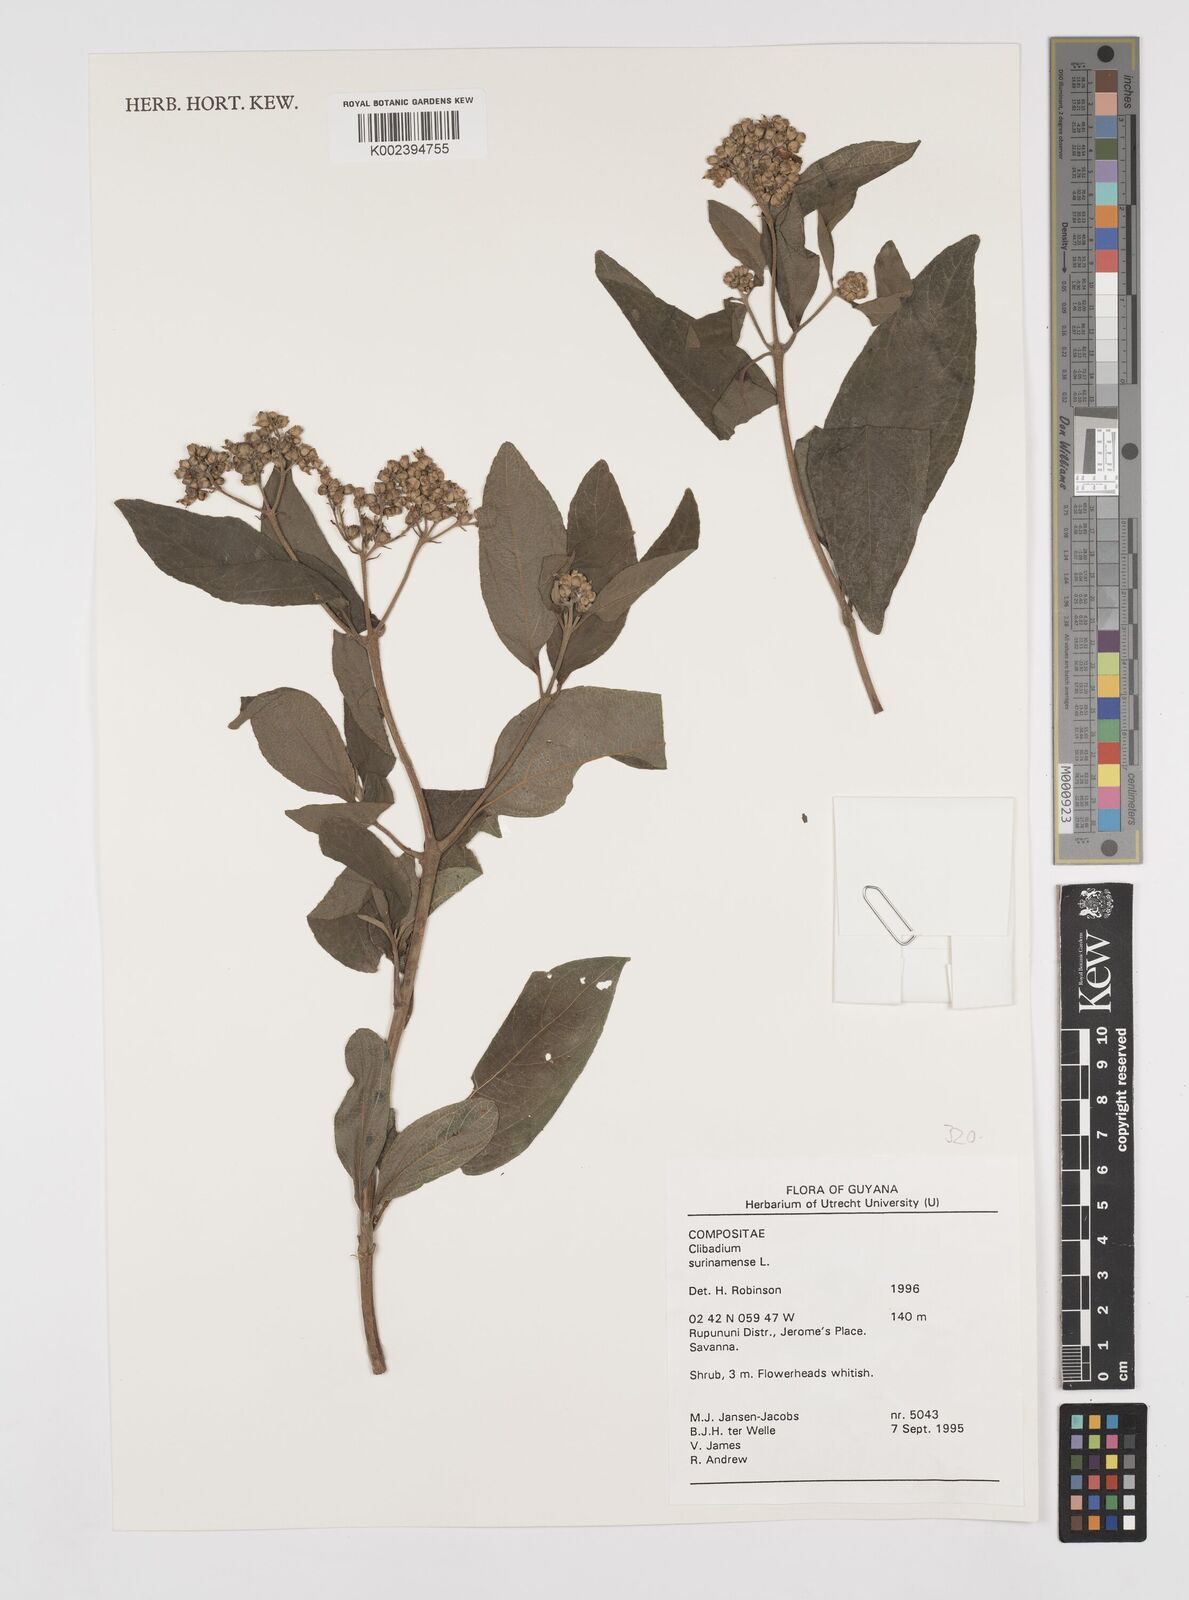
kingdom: Plantae
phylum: Tracheophyta
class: Magnoliopsida
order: Asterales
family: Asteraceae
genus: Clibadium
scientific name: Clibadium surinamense
